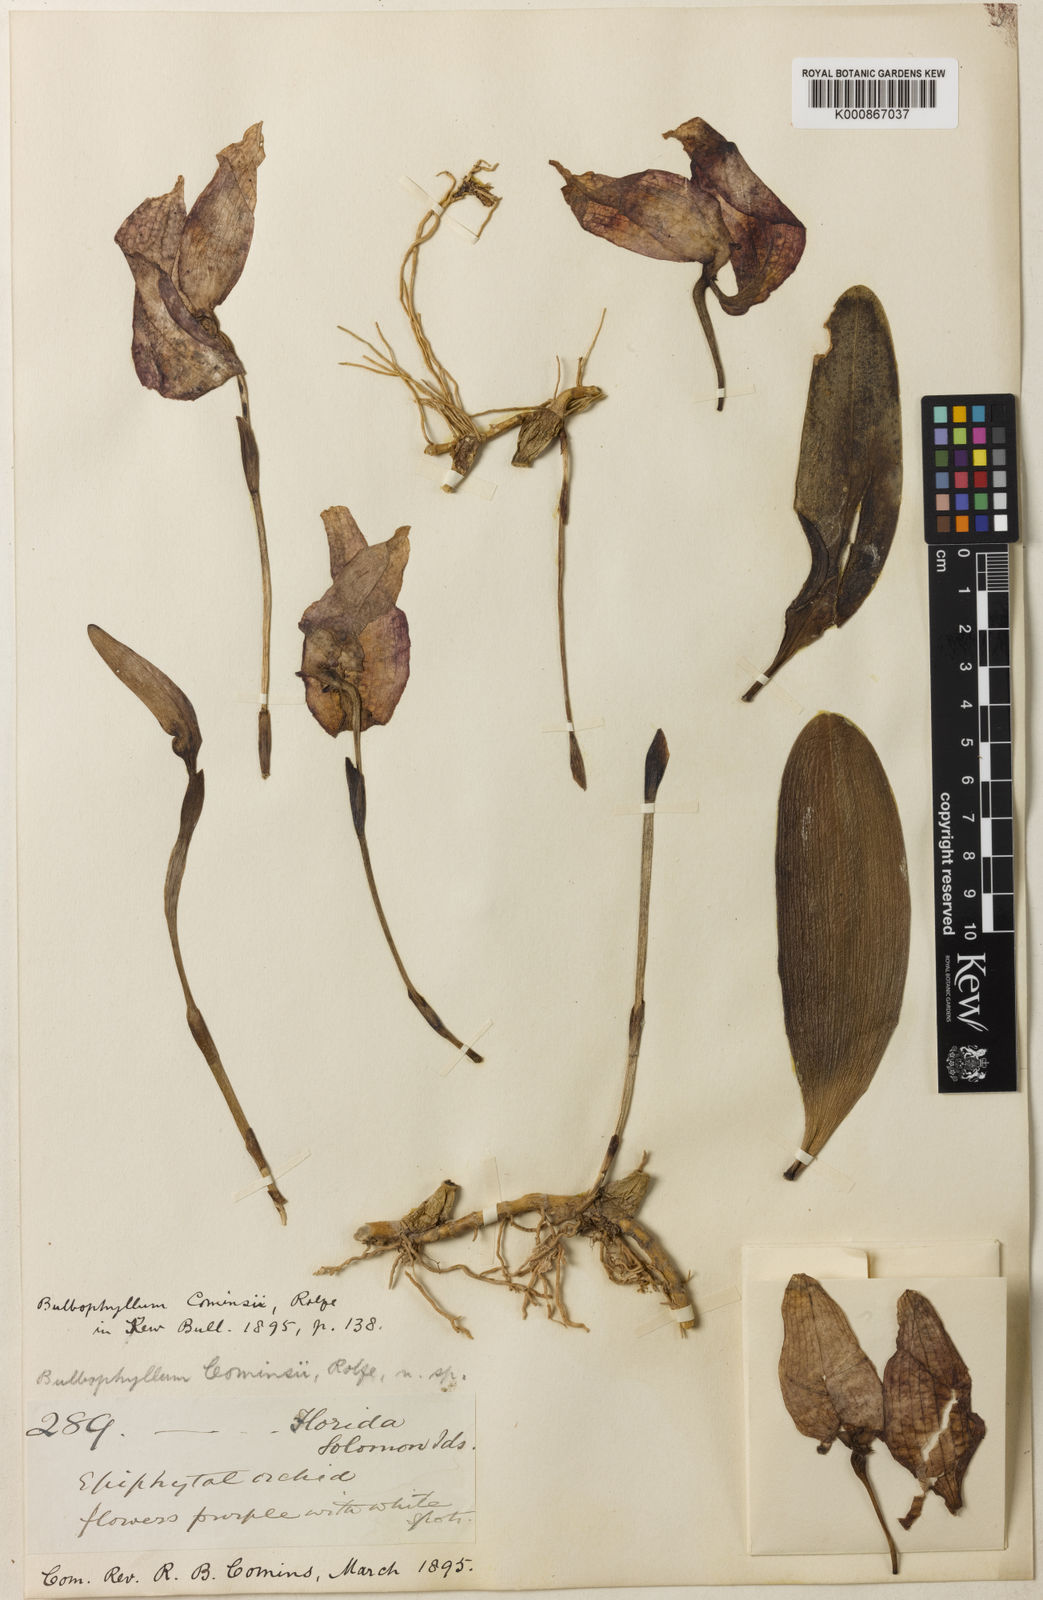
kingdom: Plantae
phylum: Tracheophyta
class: Liliopsida
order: Asparagales
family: Orchidaceae
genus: Bulbophyllum
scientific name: Bulbophyllum grandiflorum
